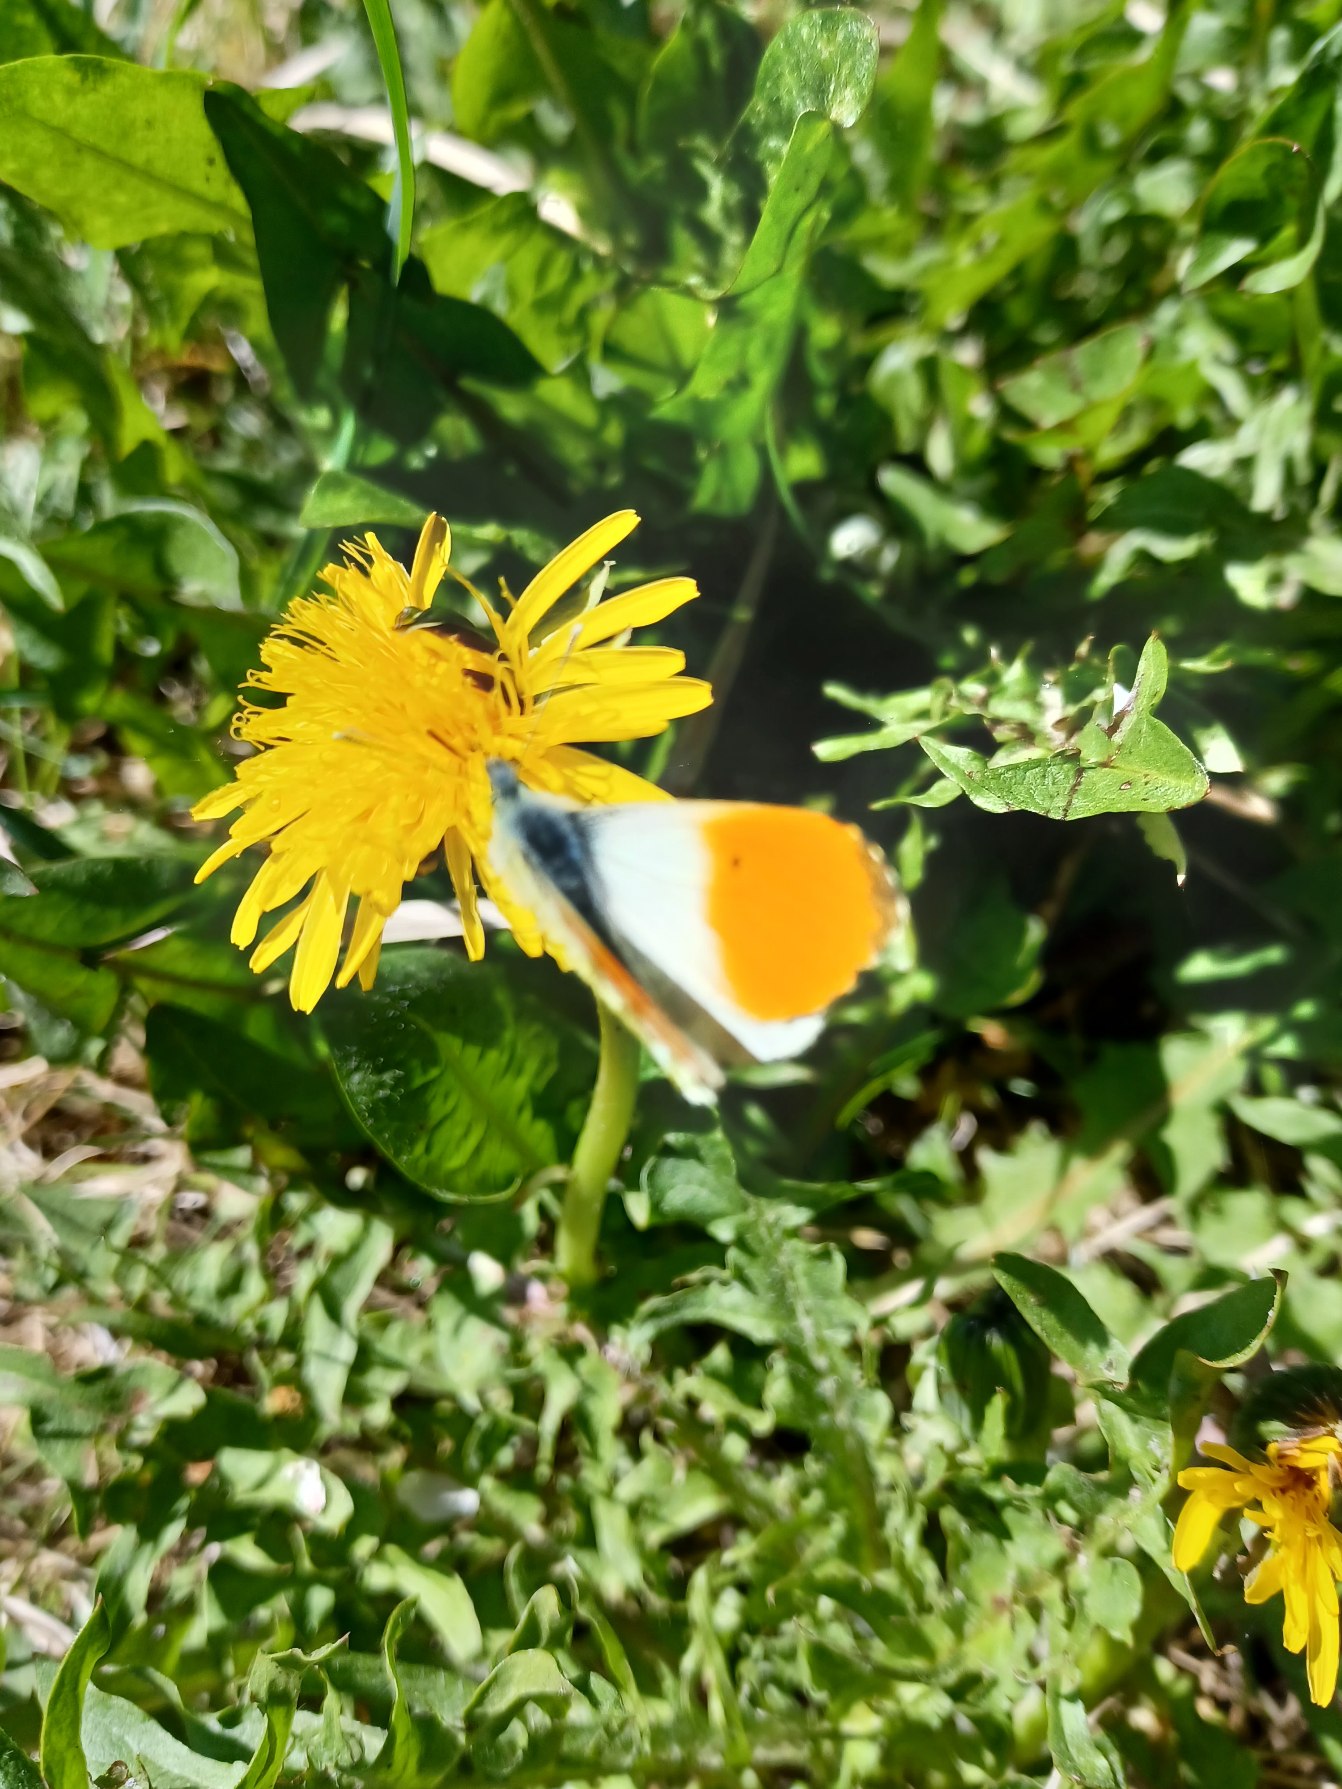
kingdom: Animalia
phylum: Arthropoda
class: Insecta
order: Lepidoptera
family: Pieridae
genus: Anthocharis
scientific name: Anthocharis cardamines
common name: Aurora
